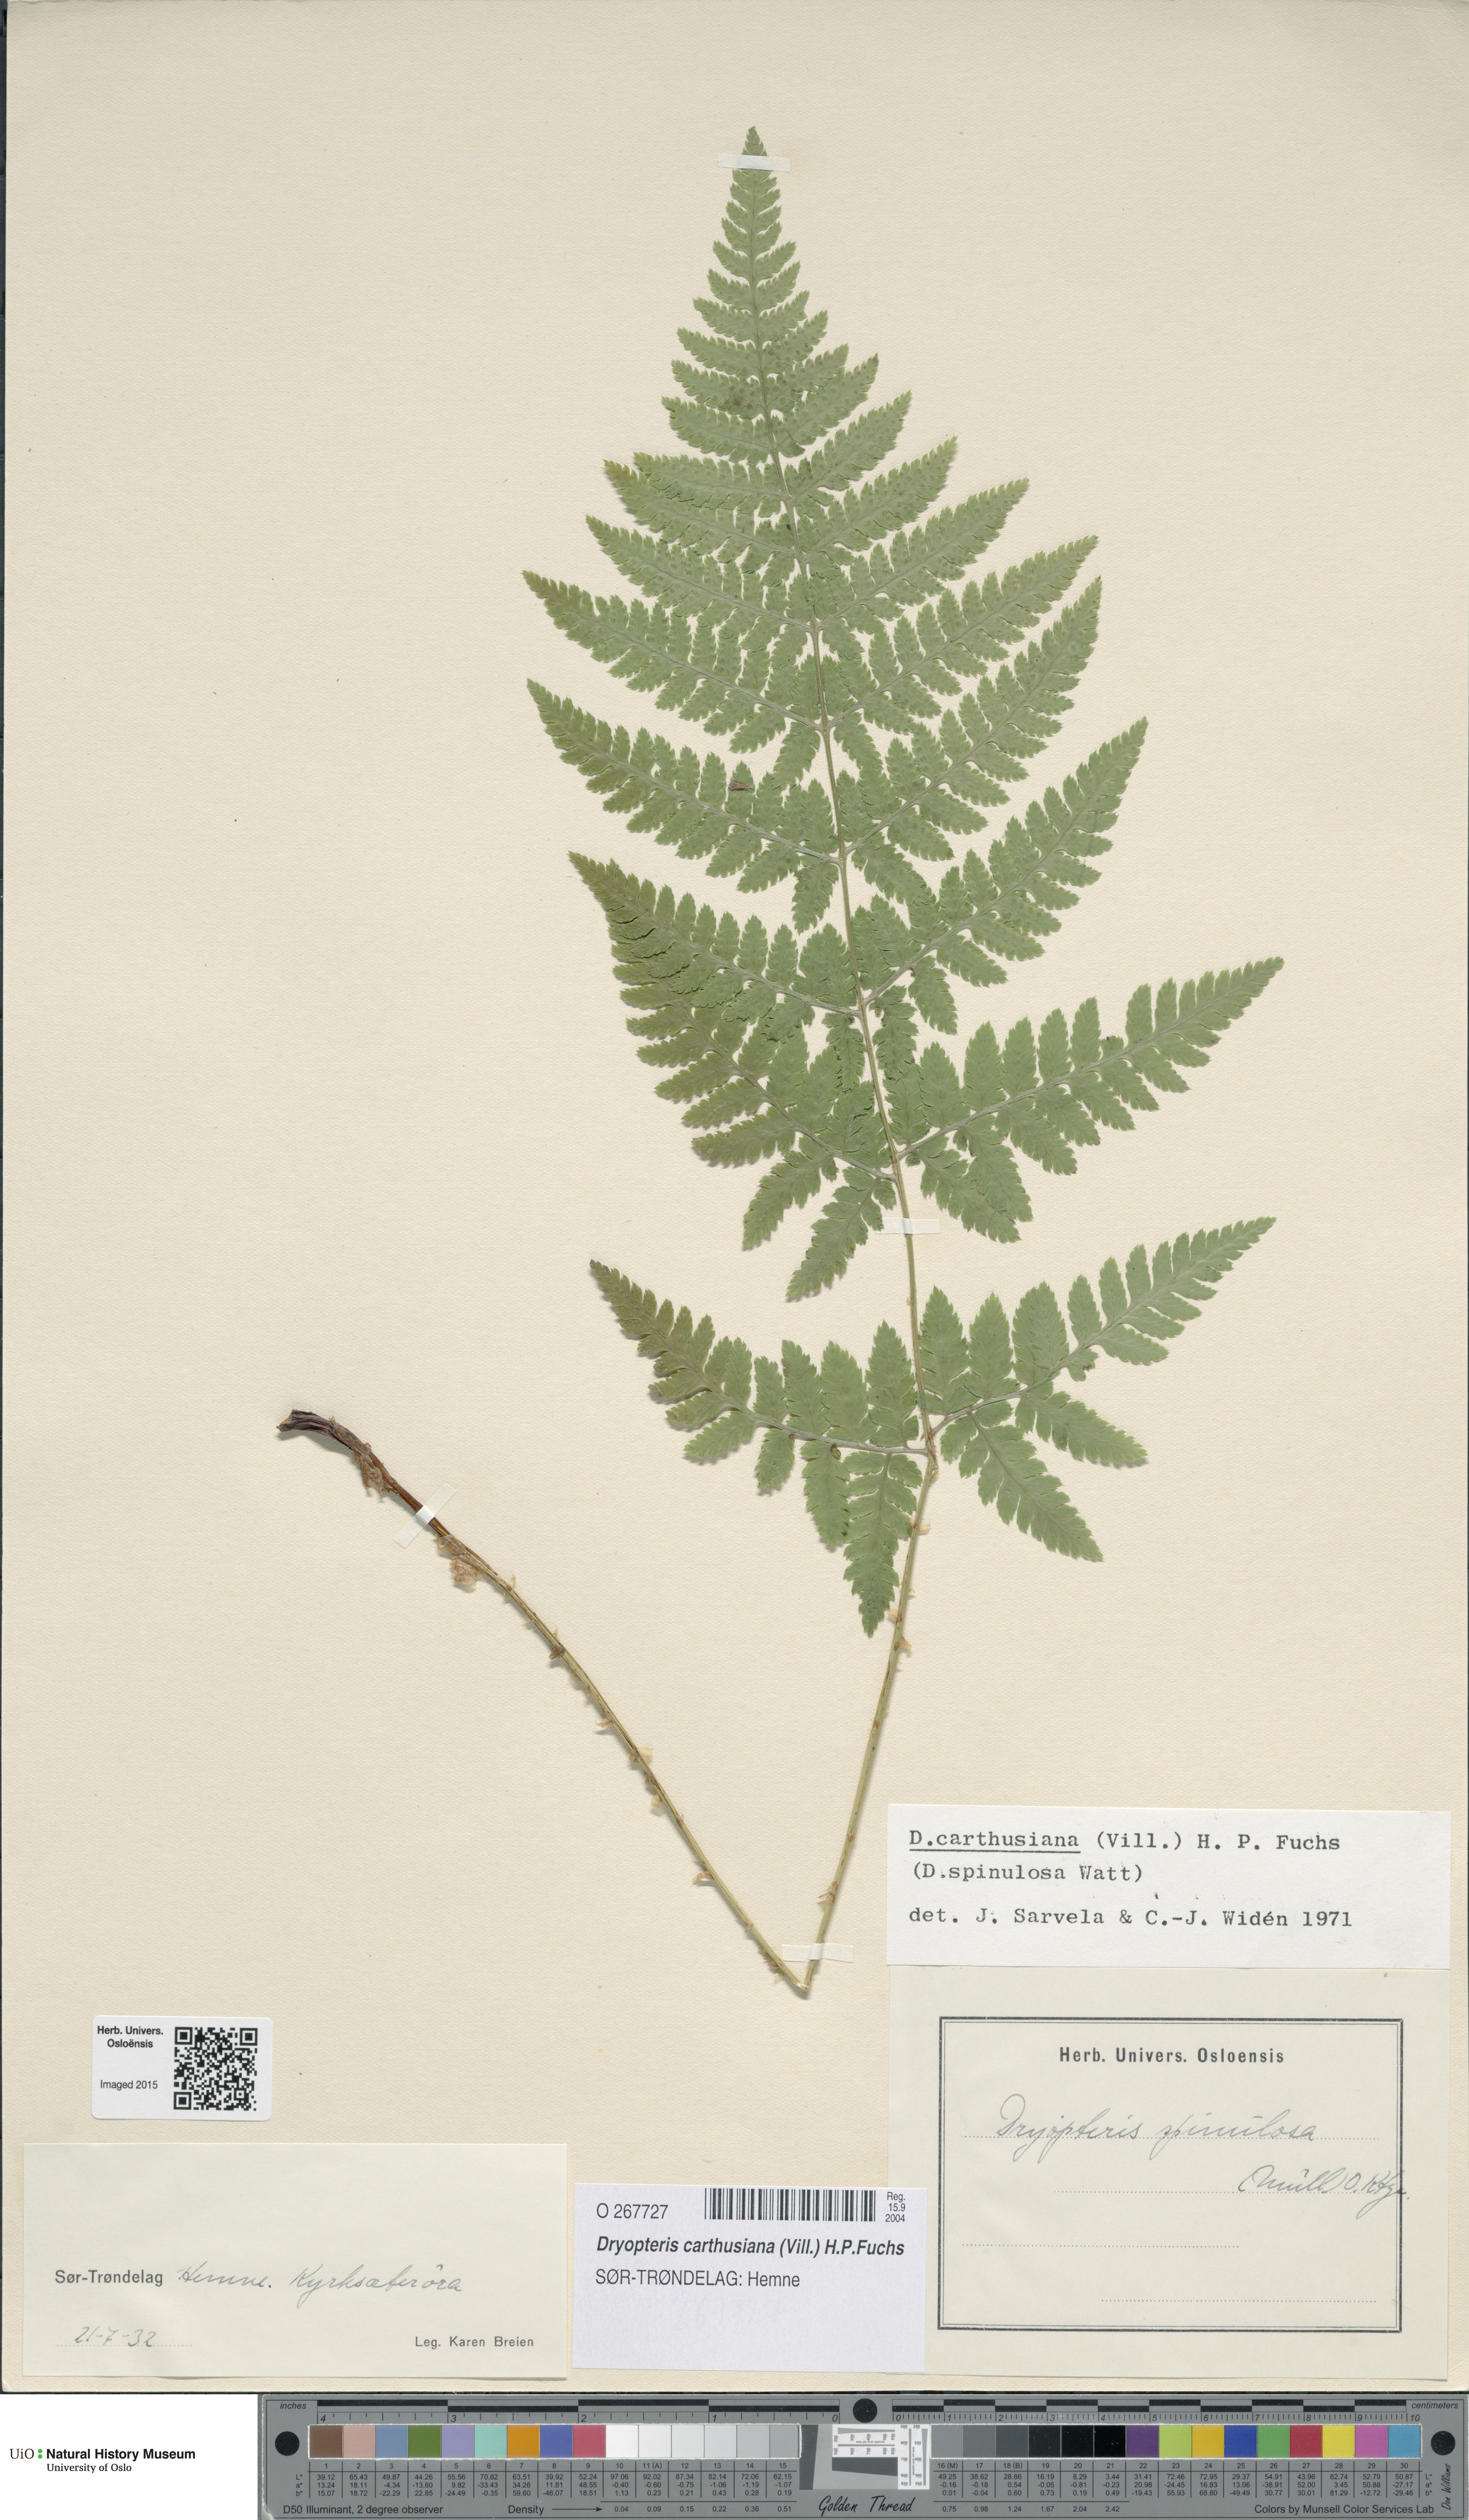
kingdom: Plantae
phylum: Tracheophyta
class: Polypodiopsida
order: Polypodiales
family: Dryopteridaceae
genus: Dryopteris
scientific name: Dryopteris carthusiana
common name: Narrow buckler-fern
